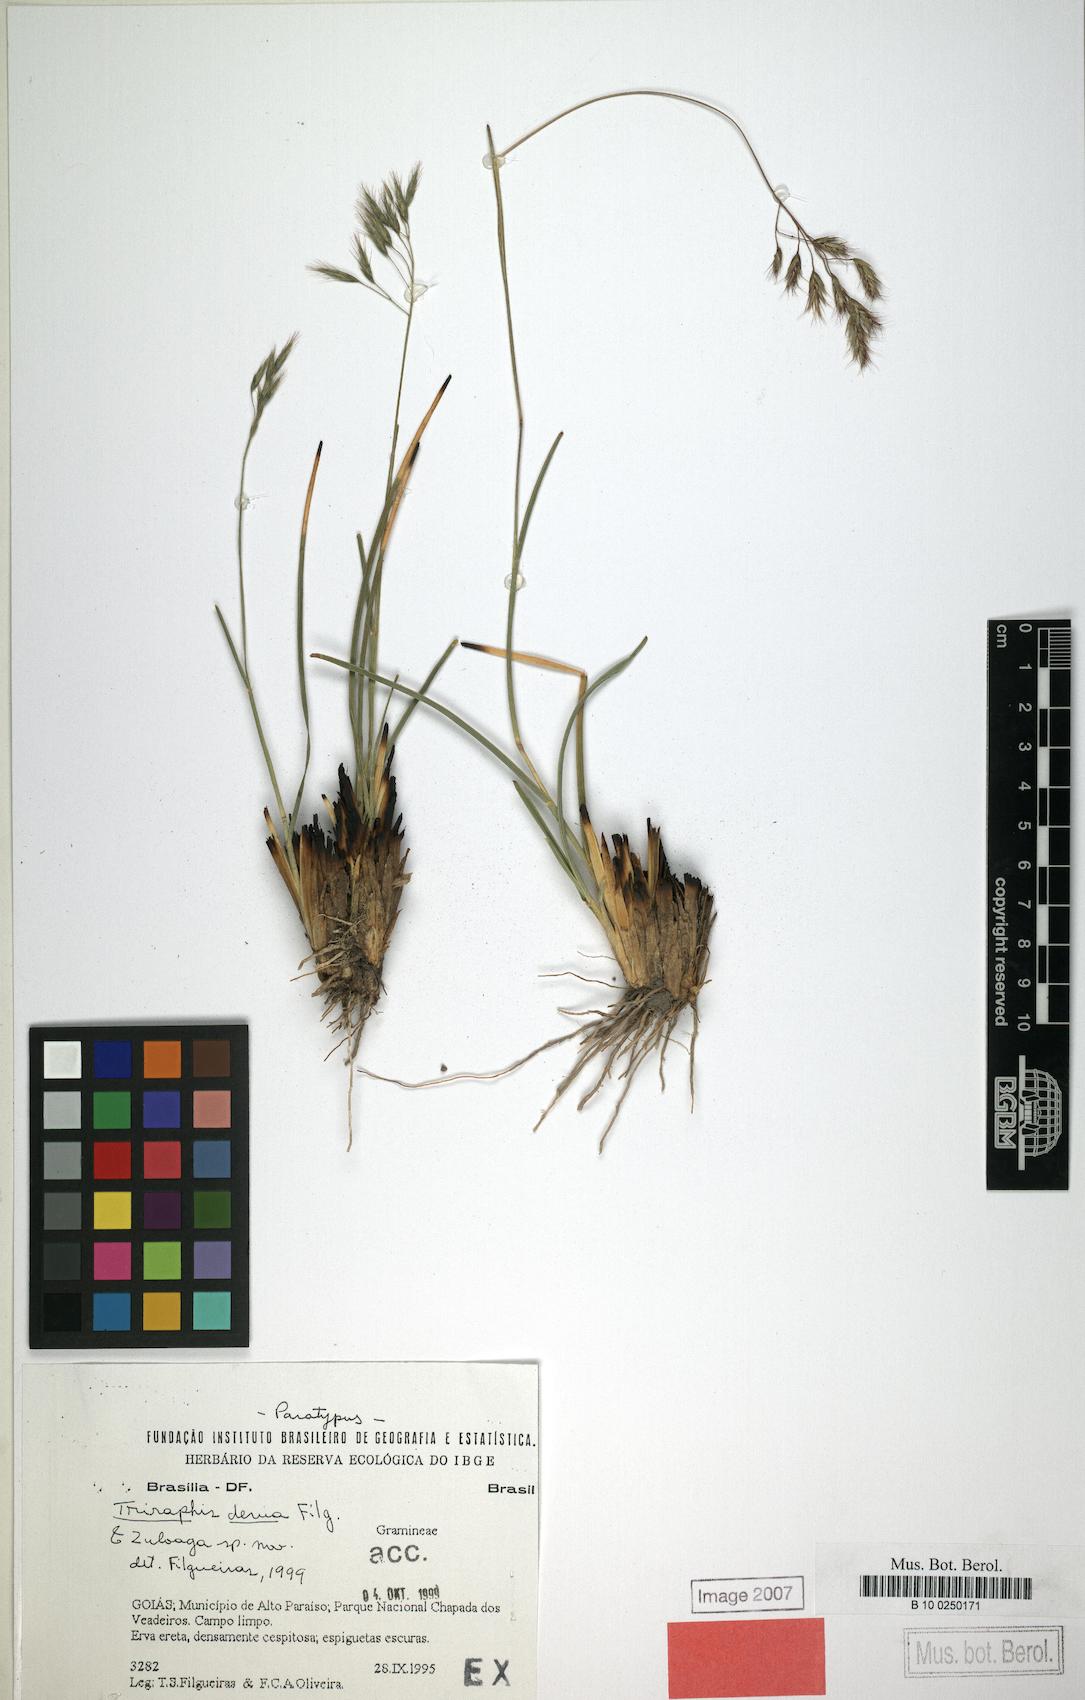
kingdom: Plantae
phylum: Tracheophyta
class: Liliopsida
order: Poales
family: Poaceae
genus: Triraphis
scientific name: Triraphis devia
